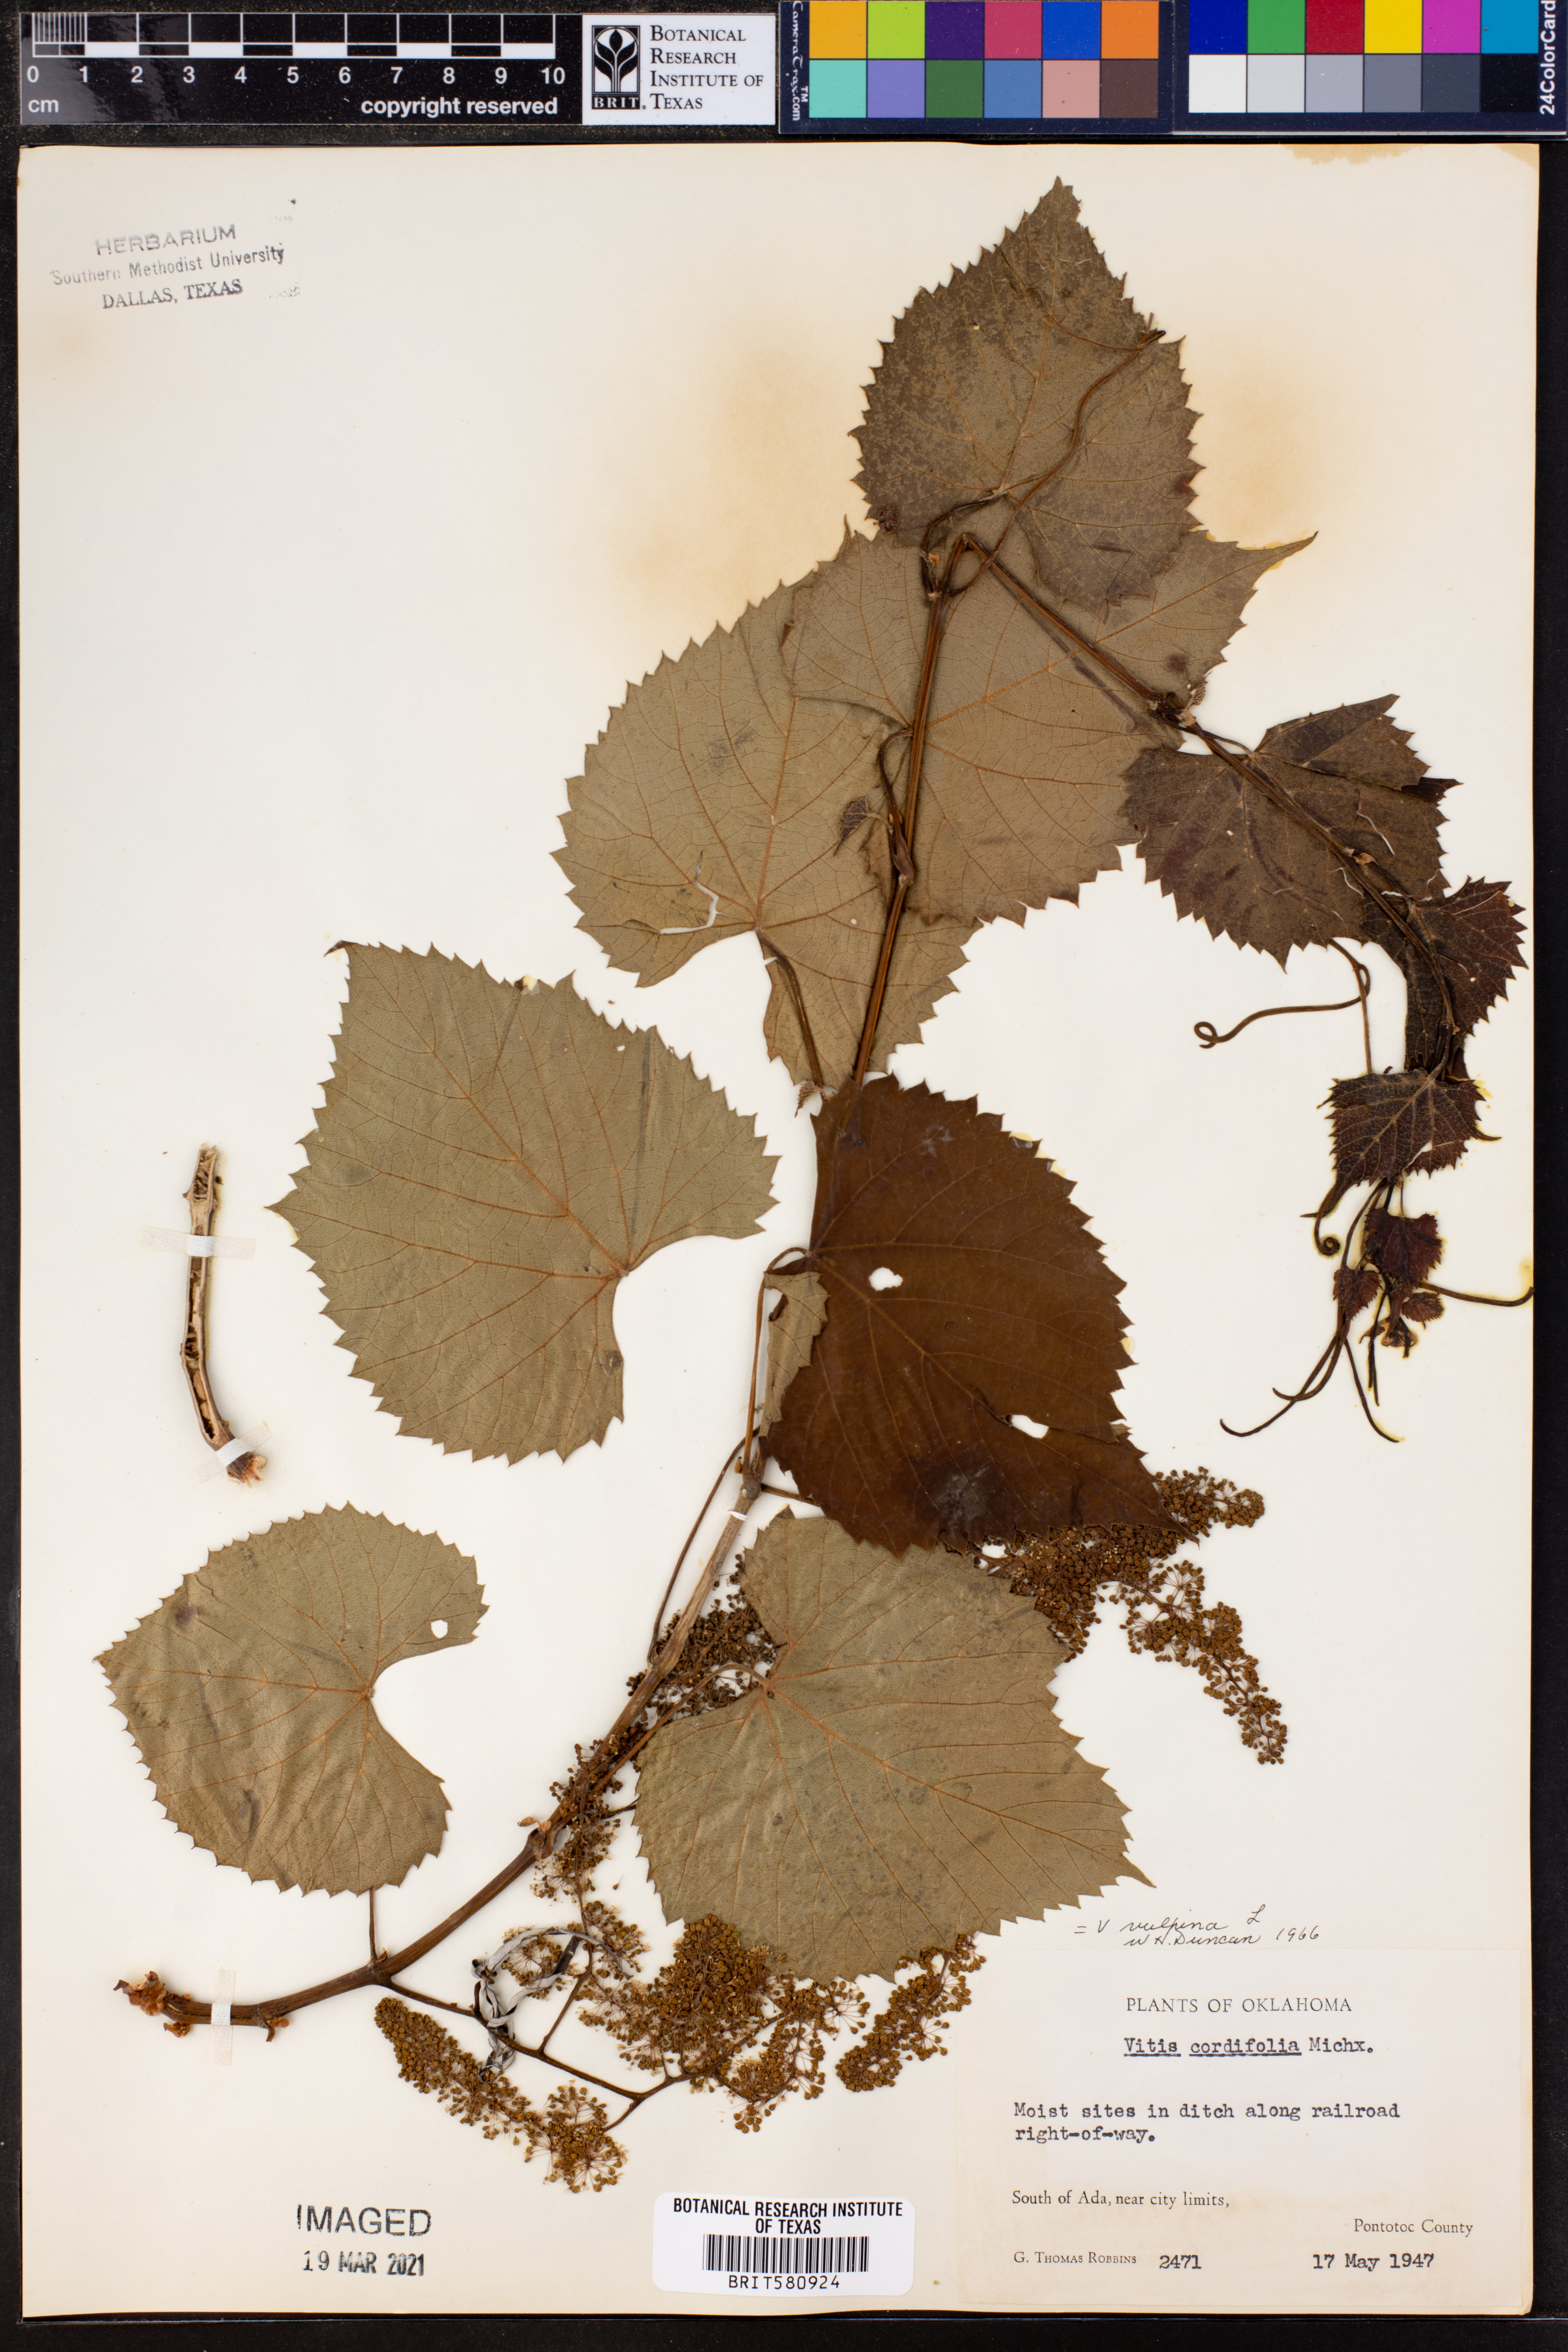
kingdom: Plantae
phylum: Tracheophyta
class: Magnoliopsida
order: Vitales
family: Vitaceae
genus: Vitis
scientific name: Vitis vulpina
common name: Frost grape
